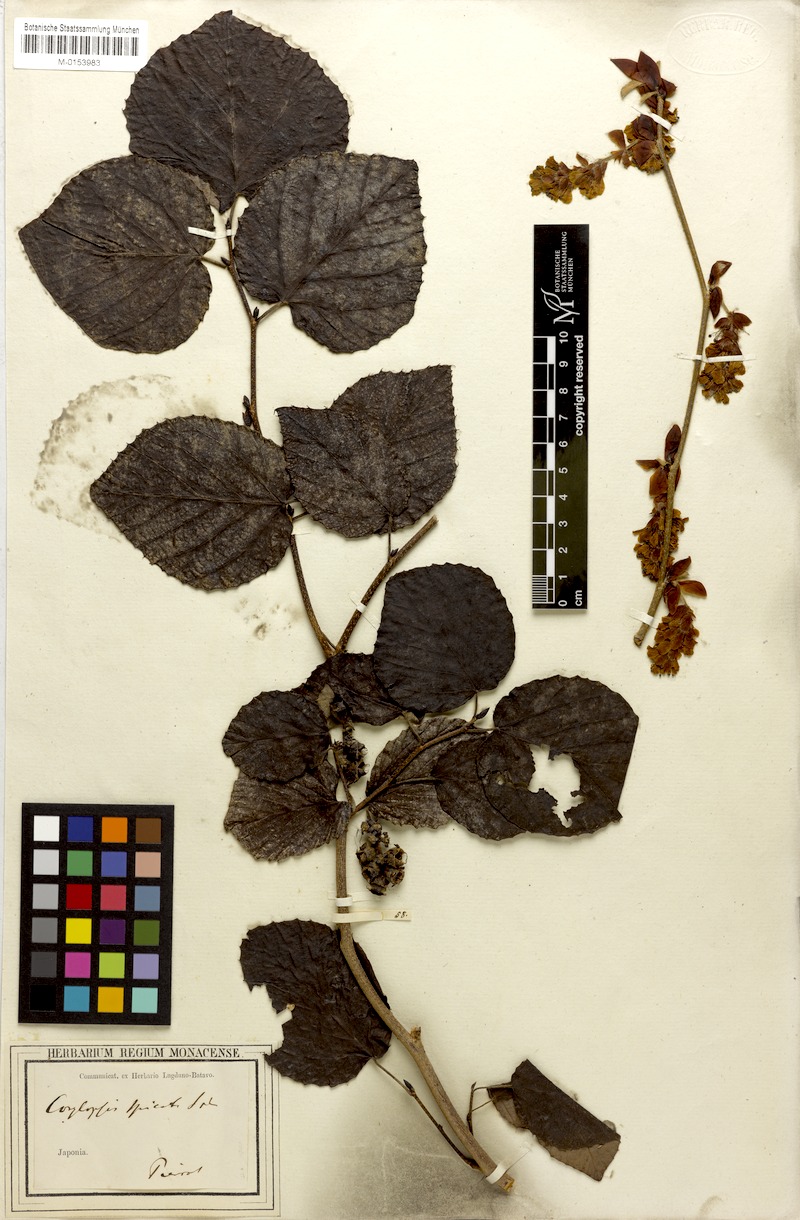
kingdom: Plantae
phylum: Tracheophyta
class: Magnoliopsida
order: Saxifragales
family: Hamamelidaceae
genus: Corylopsis
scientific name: Corylopsis spicata
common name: Spike winter-hazel
